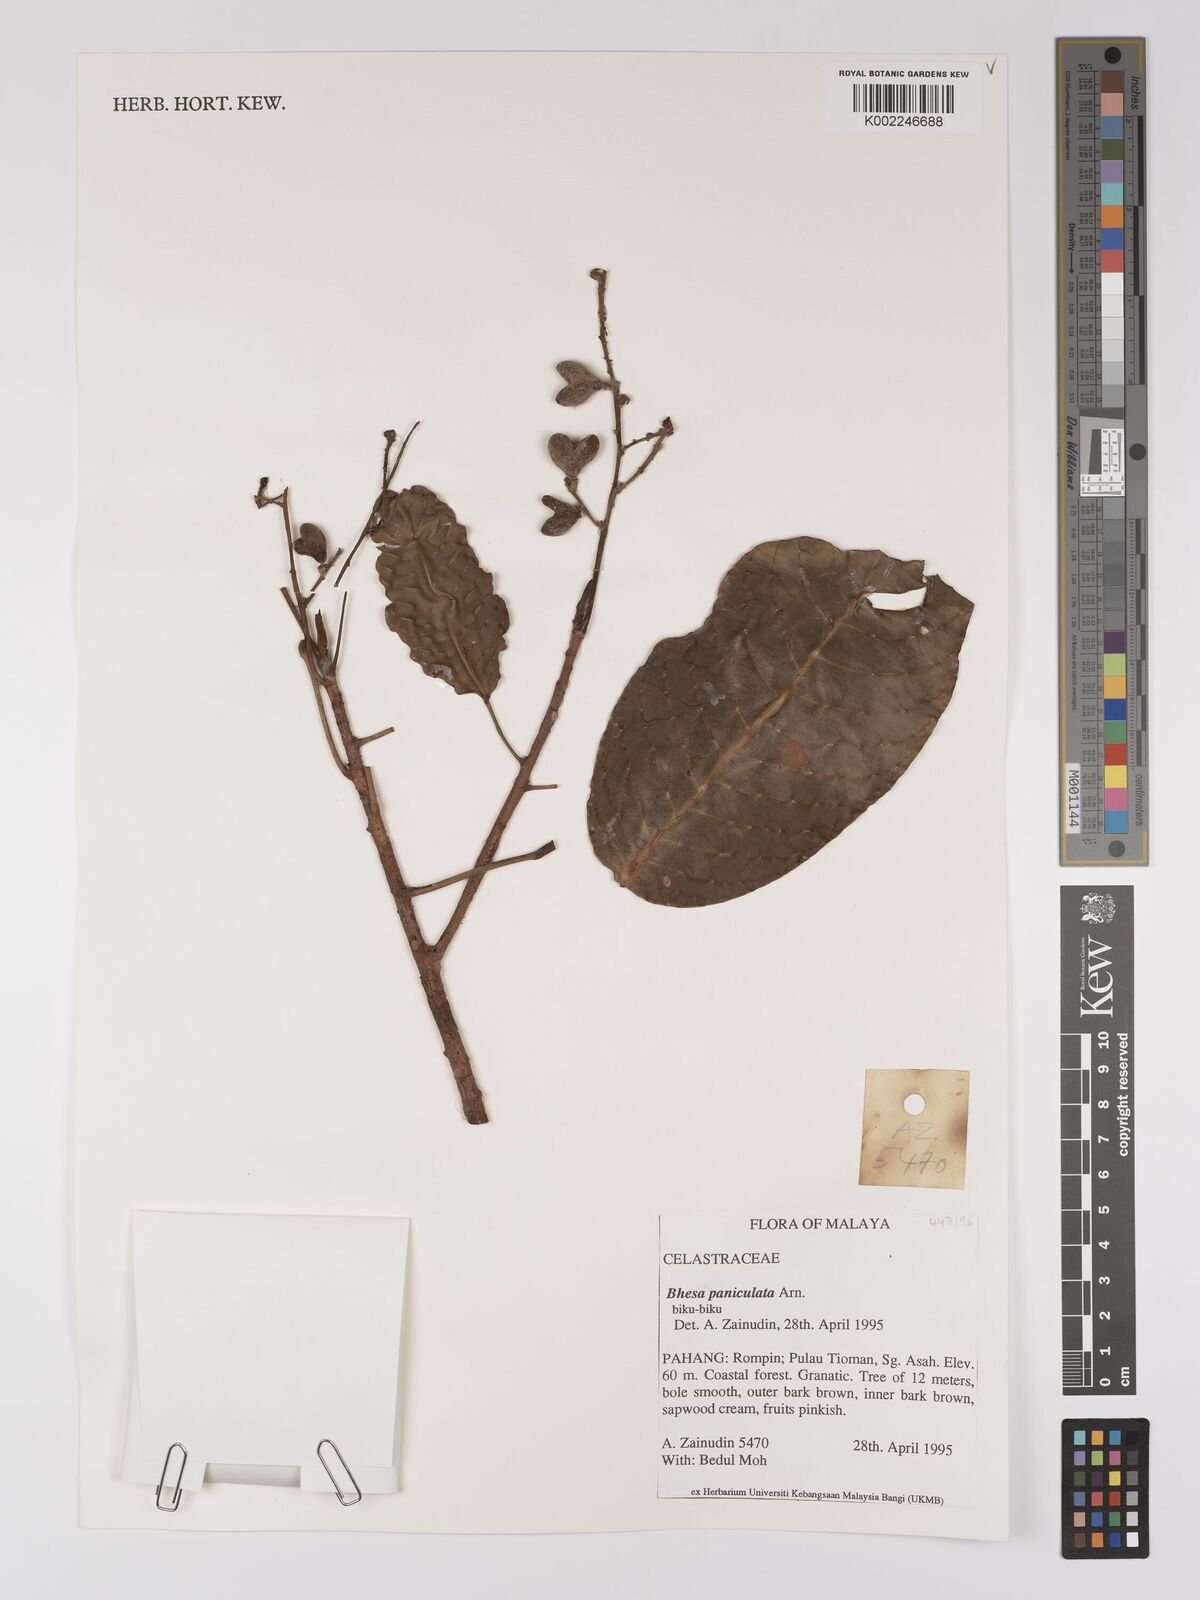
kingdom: Plantae
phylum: Tracheophyta
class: Magnoliopsida
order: Malpighiales
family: Centroplacaceae
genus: Bhesa
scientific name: Bhesa paniculata
